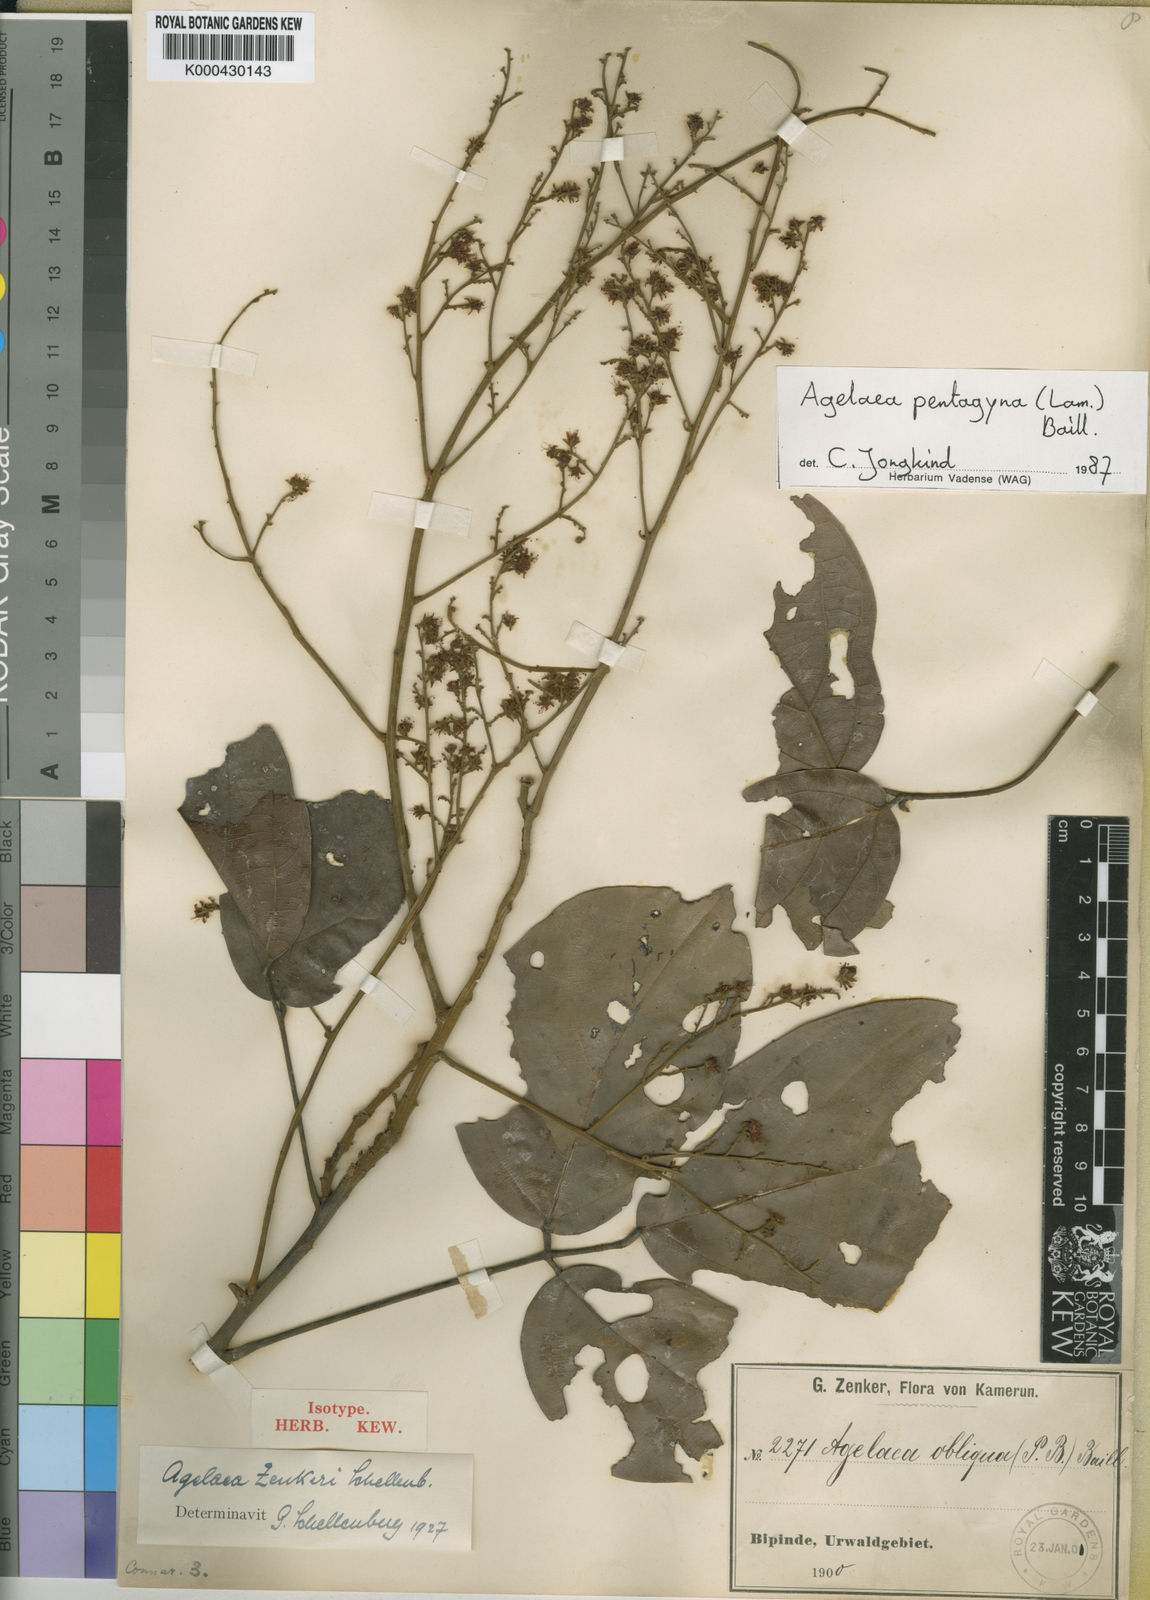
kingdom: Plantae
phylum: Tracheophyta
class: Magnoliopsida
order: Oxalidales
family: Connaraceae
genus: Agelaea
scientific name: Agelaea pentagyna
